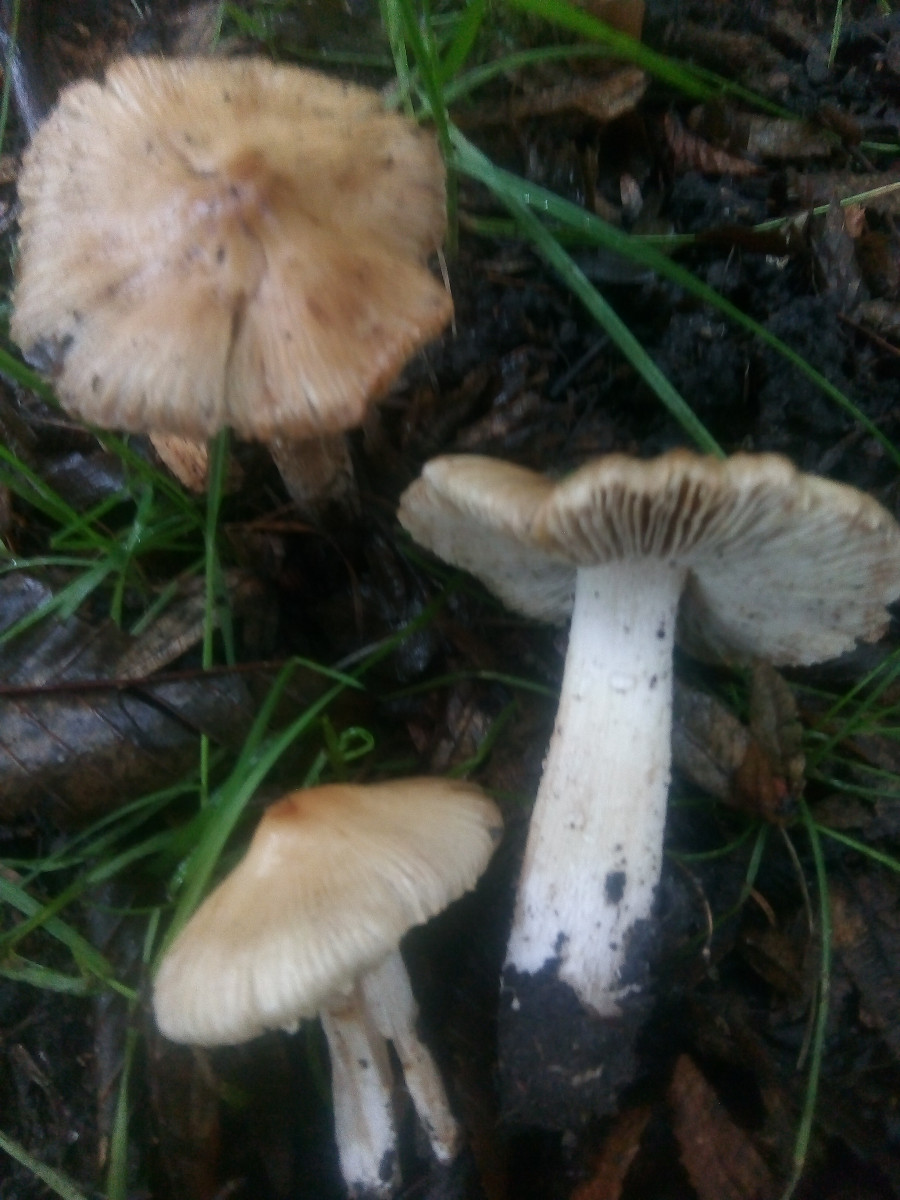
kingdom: Fungi
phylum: Basidiomycota
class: Agaricomycetes
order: Agaricales
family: Inocybaceae
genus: Pseudosperma
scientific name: Pseudosperma
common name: trævlhat
